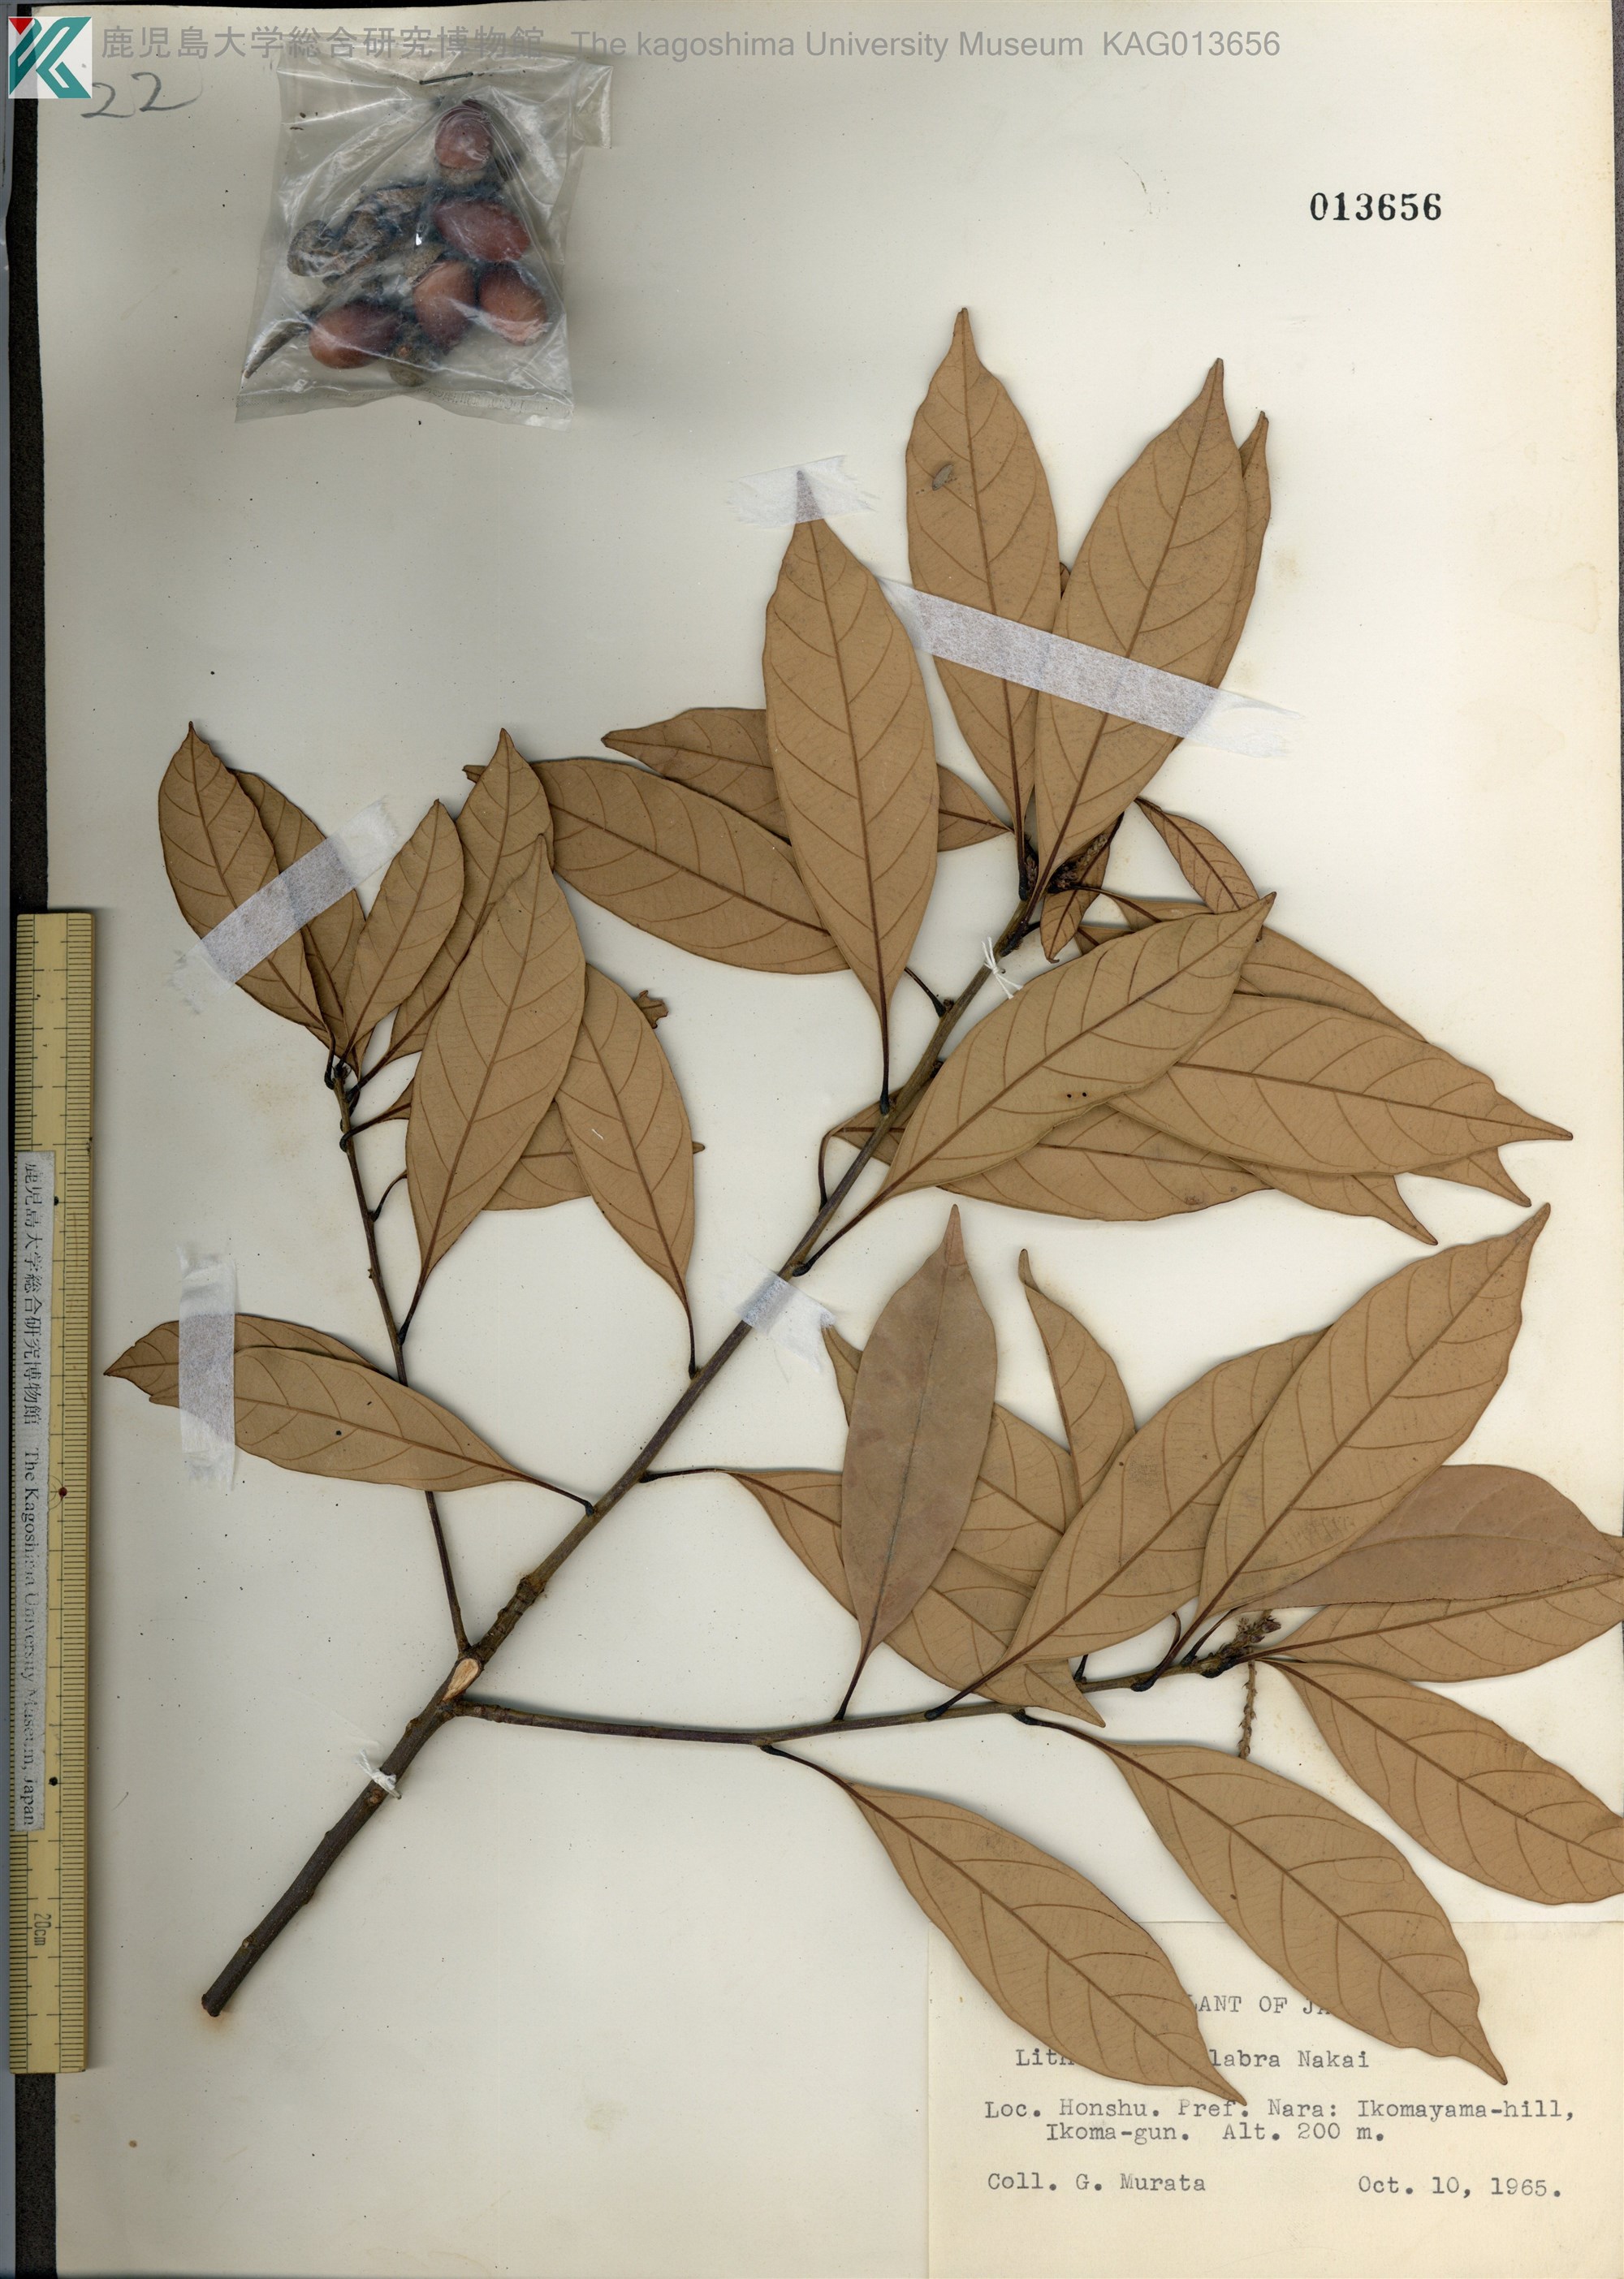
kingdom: Plantae
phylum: Tracheophyta
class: Magnoliopsida
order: Fagales
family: Fagaceae
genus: Lithocarpus
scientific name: Lithocarpus glaber
